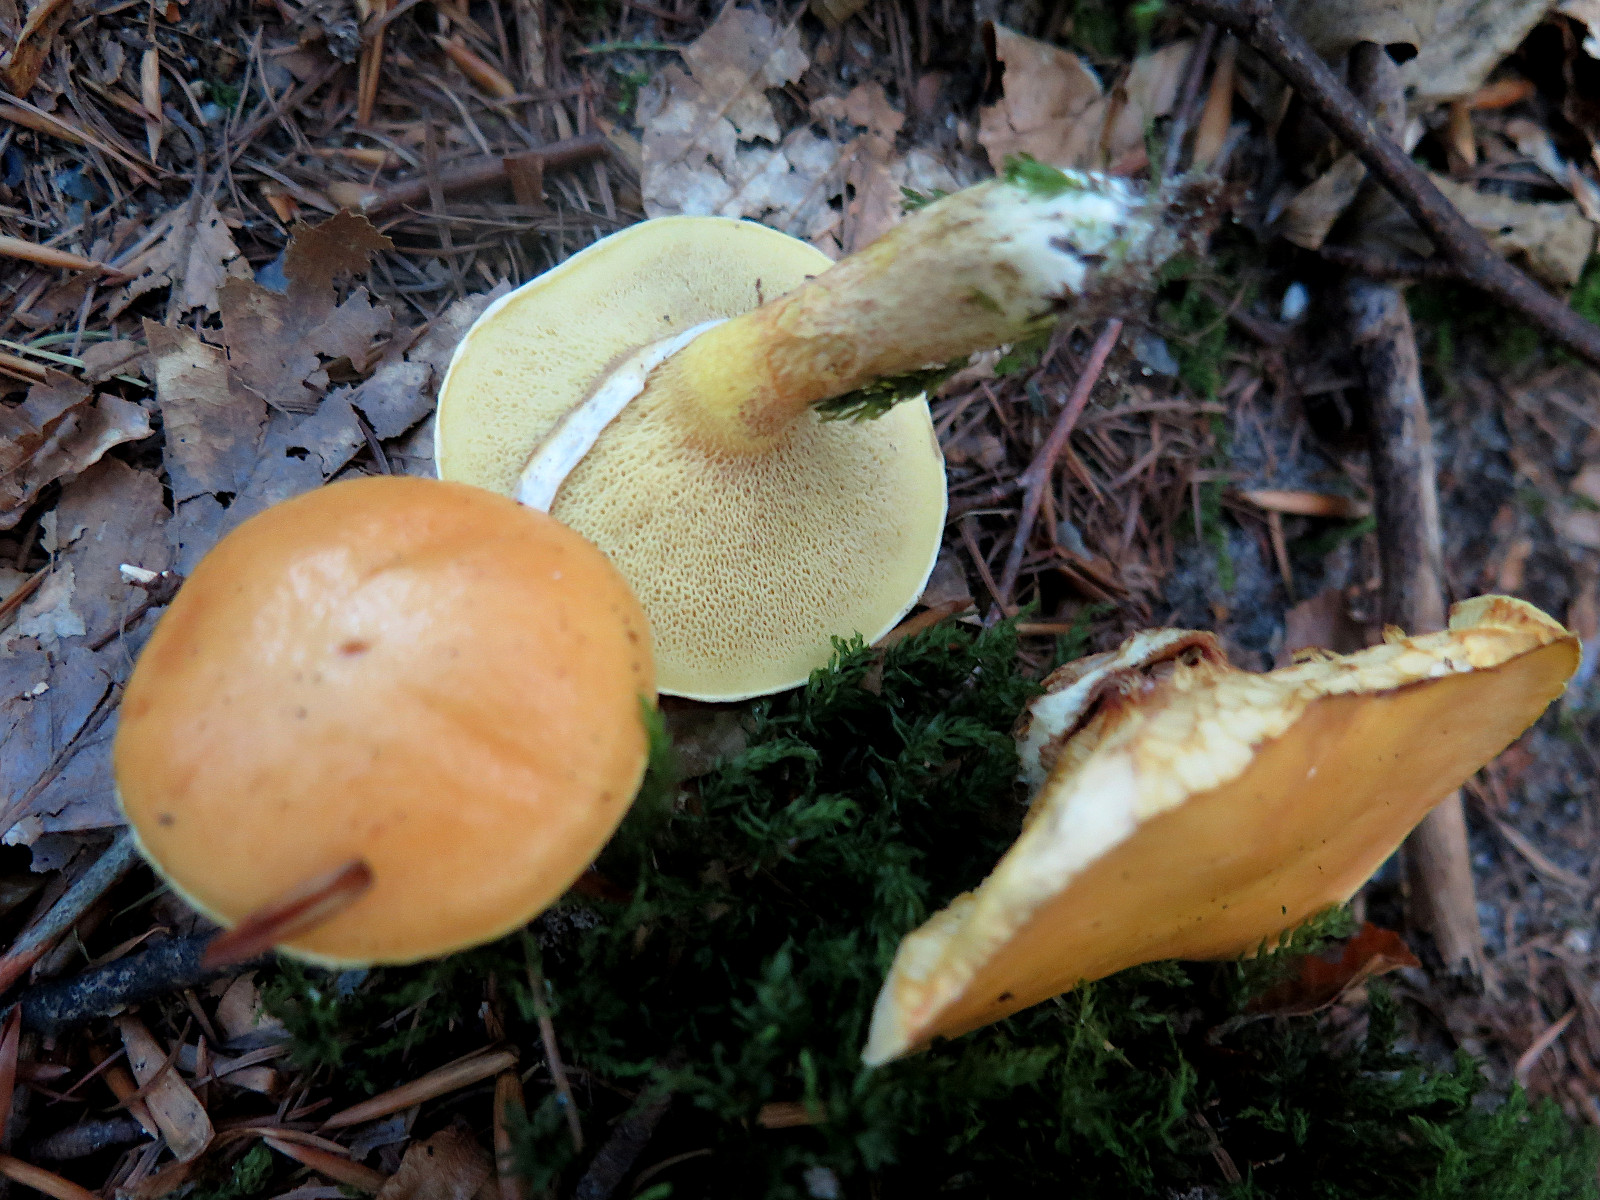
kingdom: Fungi
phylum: Basidiomycota
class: Agaricomycetes
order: Boletales
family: Suillaceae
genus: Suillus
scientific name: Suillus grevillei
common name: lærke-slimrørhat
